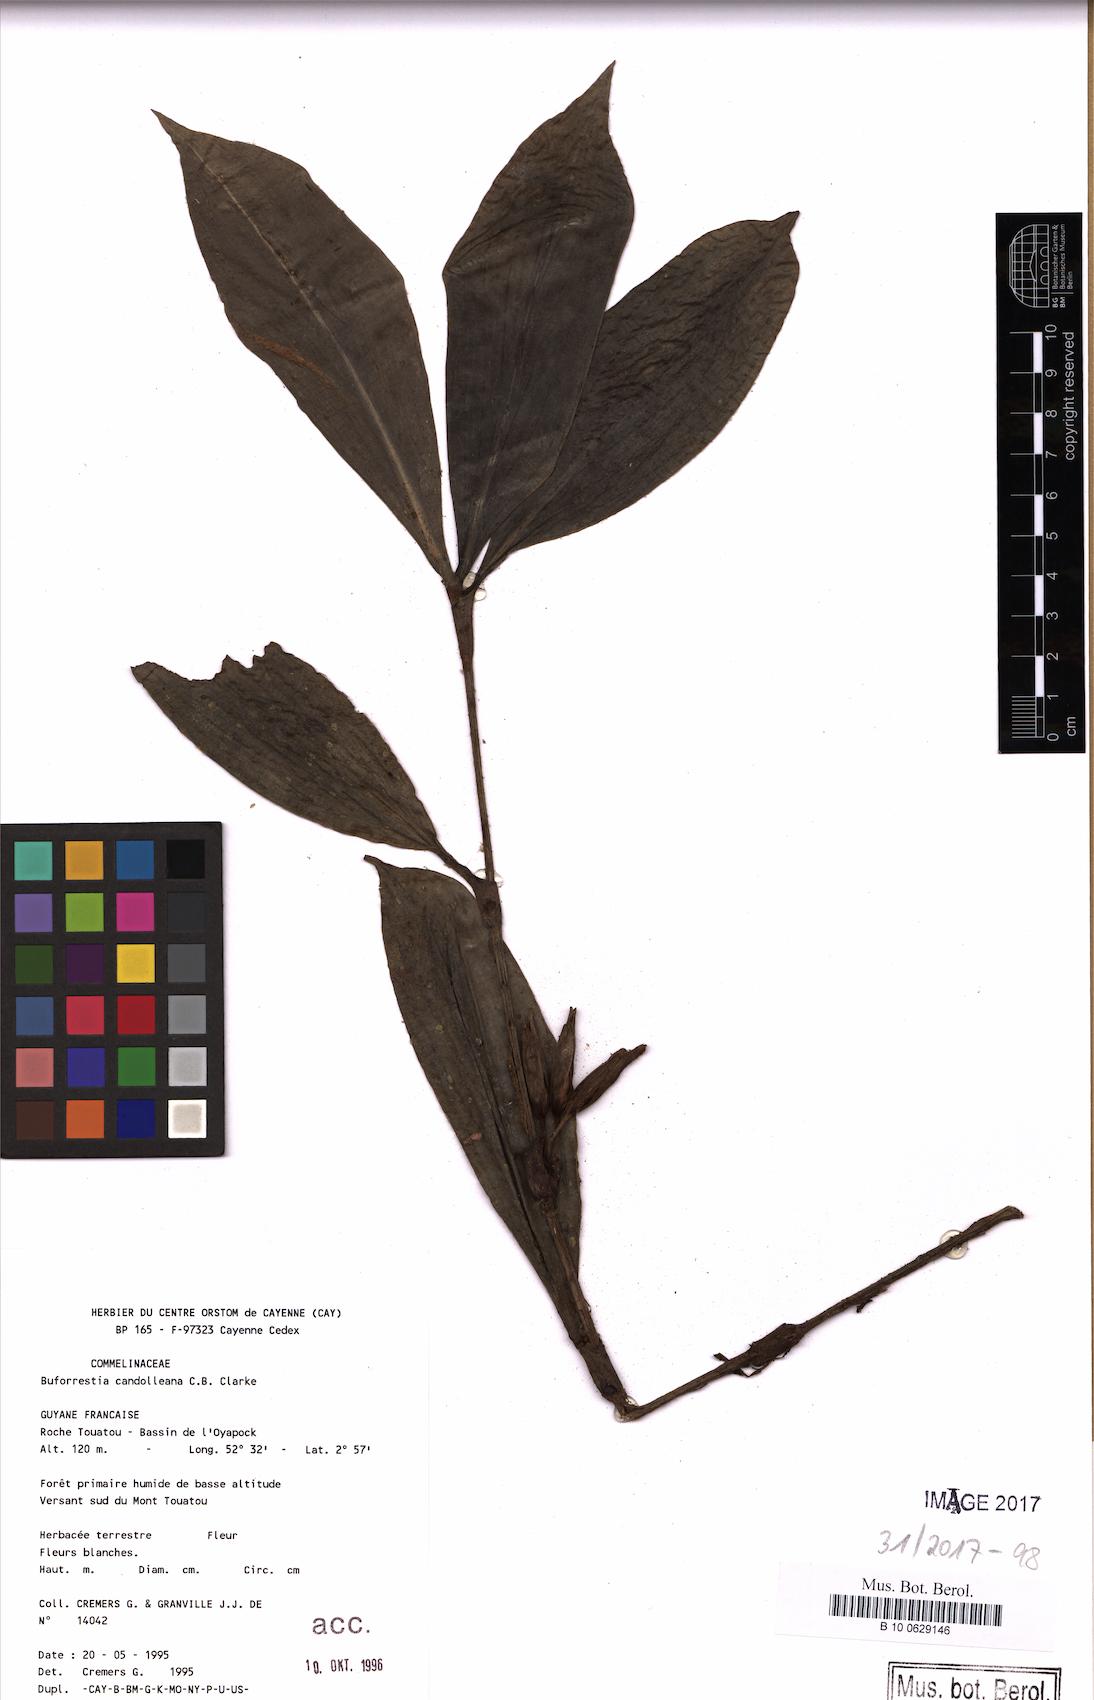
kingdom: Plantae
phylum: Tracheophyta
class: Liliopsida
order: Commelinales
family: Commelinaceae
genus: Buforrestia
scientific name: Buforrestia candolleana
